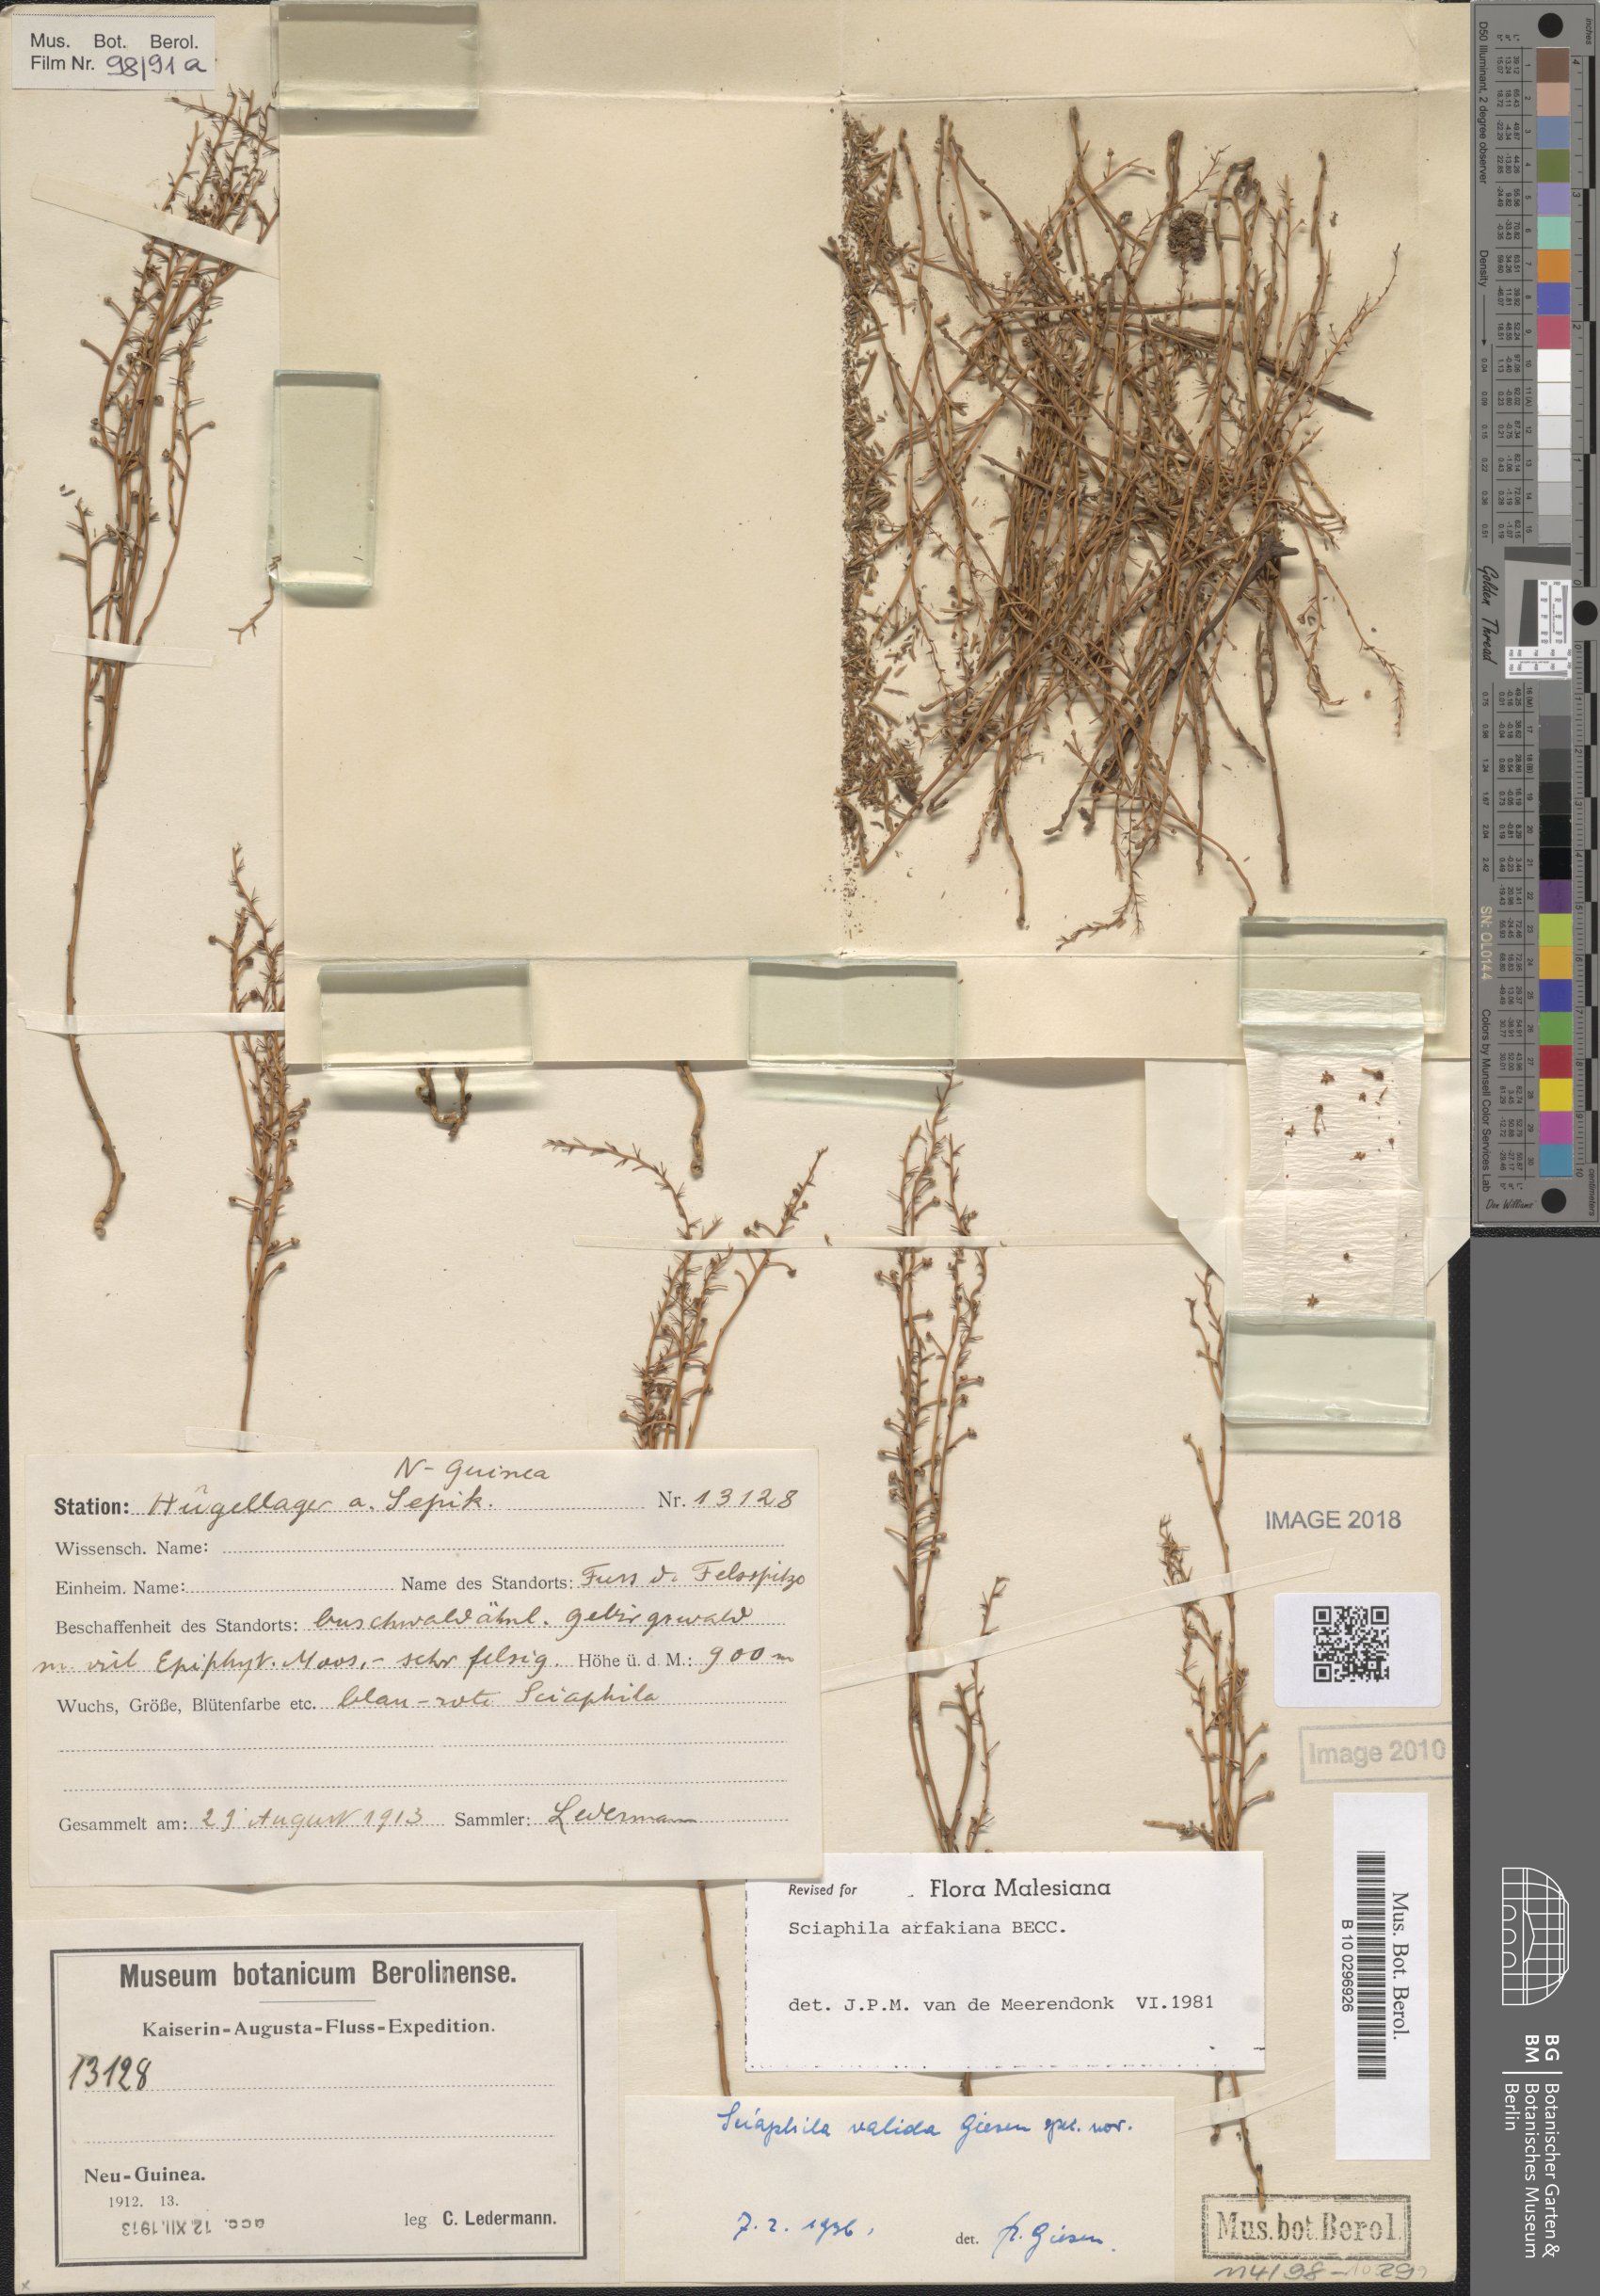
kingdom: Plantae
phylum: Tracheophyta
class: Liliopsida
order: Pandanales
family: Triuridaceae
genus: Sciaphila
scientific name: Sciaphila arfakiana
